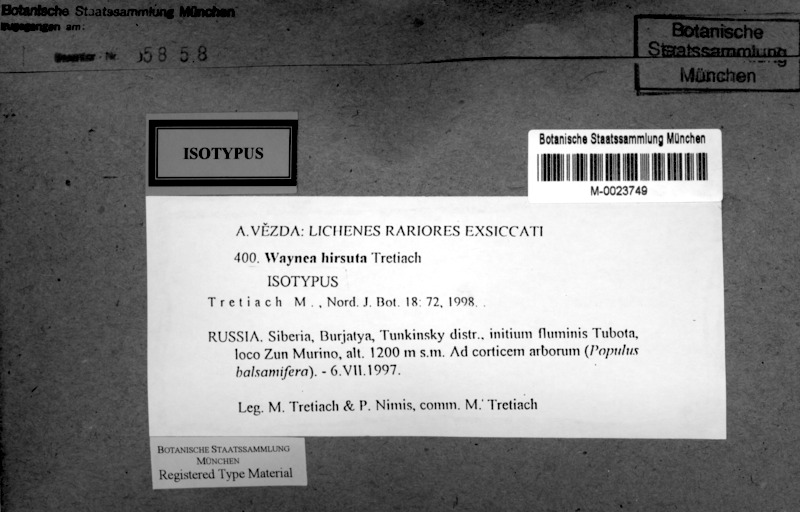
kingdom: Fungi
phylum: Ascomycota
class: Lecanoromycetes
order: Lecanorales
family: Ramalinaceae
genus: Waynea
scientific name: Waynea
